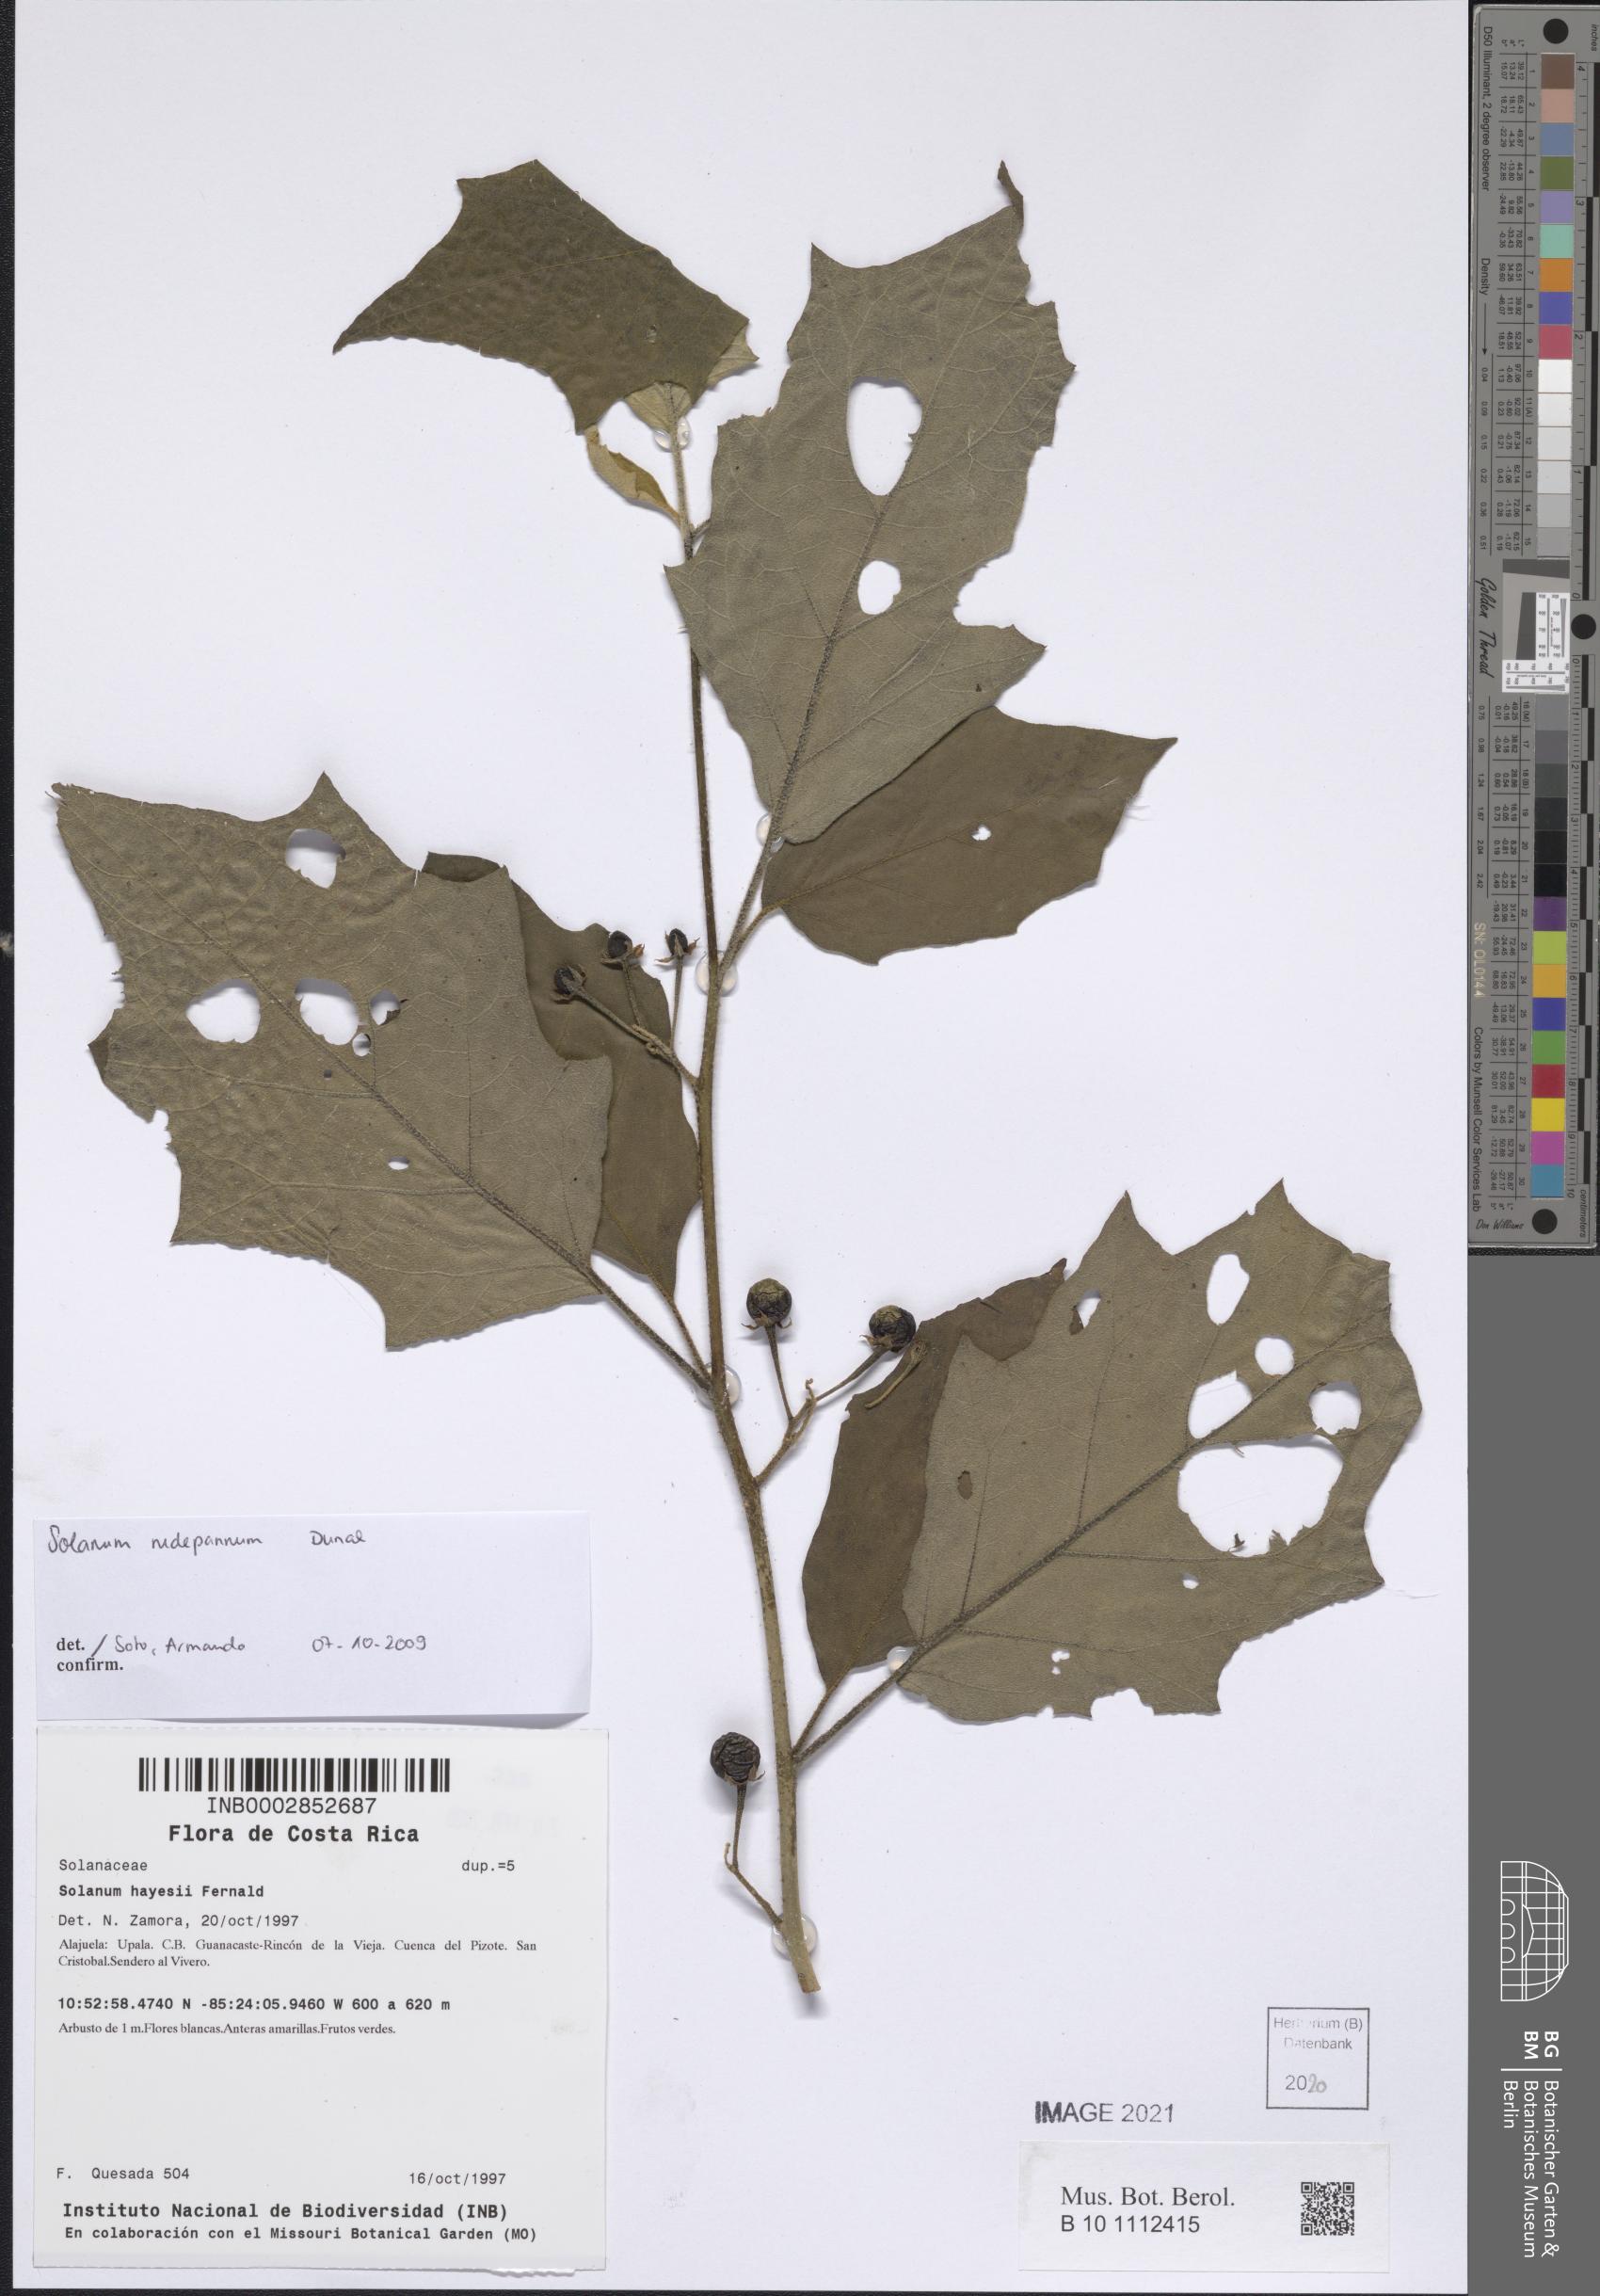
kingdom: Plantae
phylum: Tracheophyta
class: Magnoliopsida
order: Solanales
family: Solanaceae
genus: Solanum
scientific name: Solanum rude-pannum
